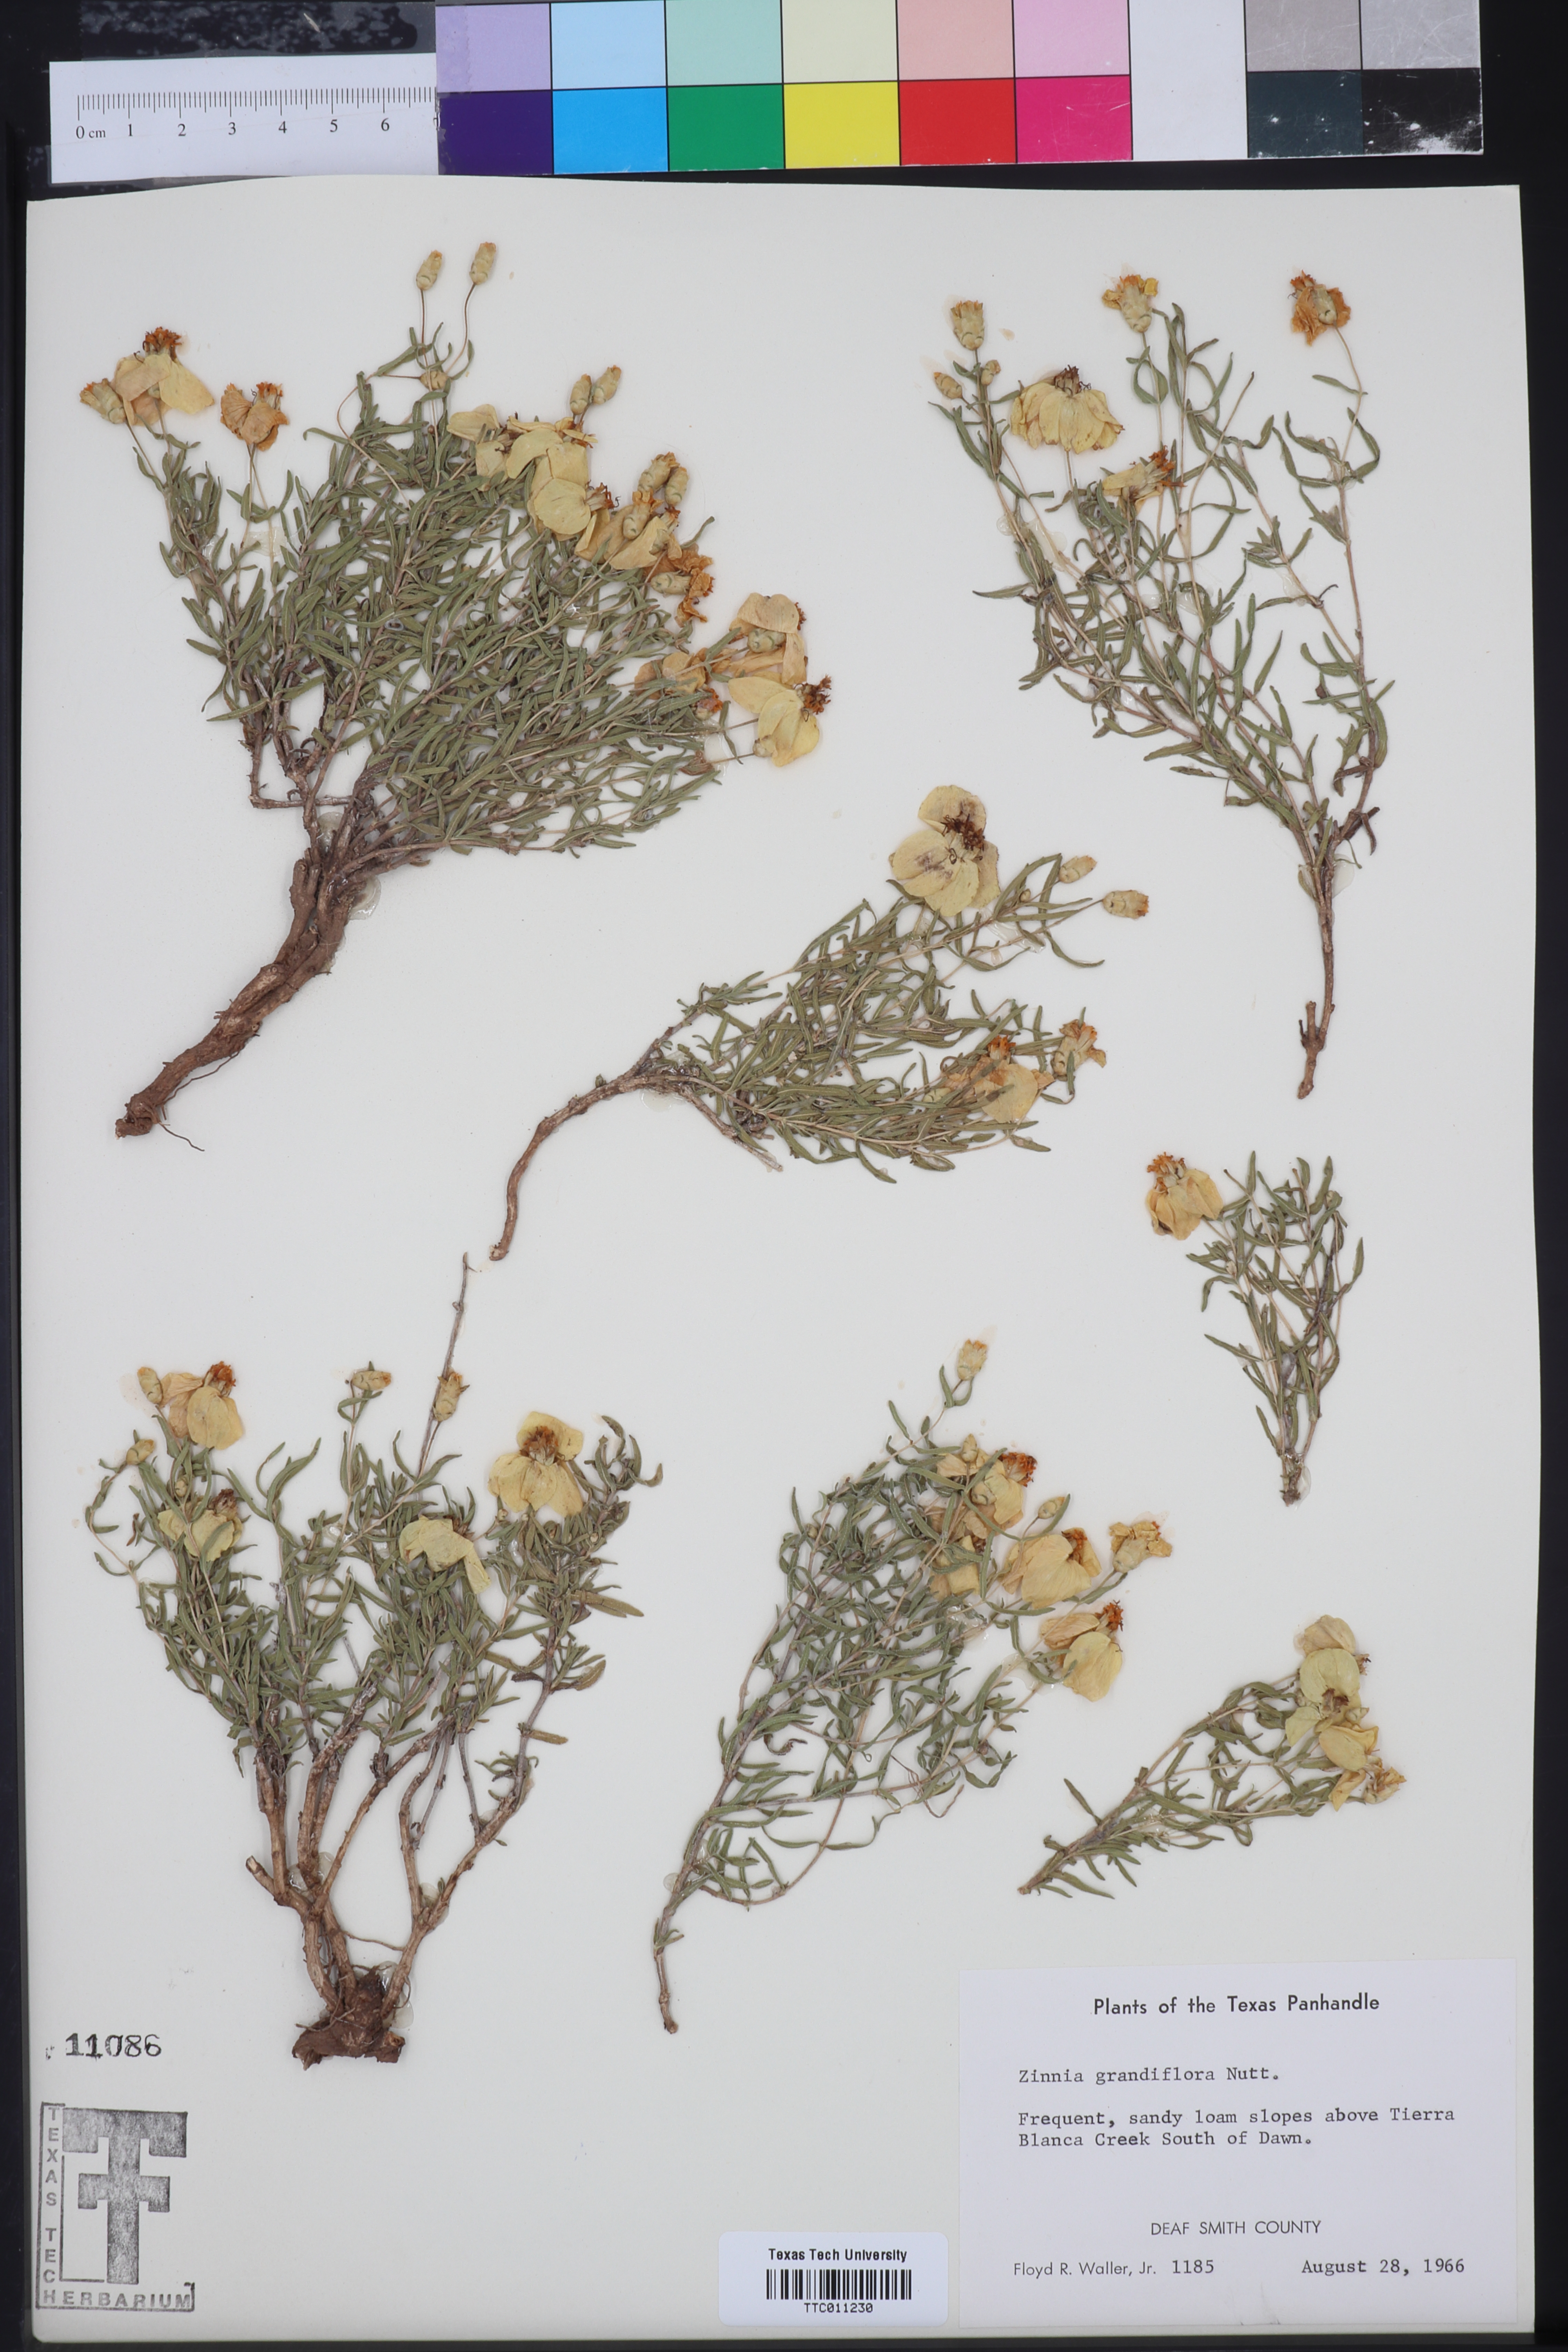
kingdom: Plantae
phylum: Tracheophyta
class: Magnoliopsida
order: Asterales
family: Asteraceae
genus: Zinnia
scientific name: Zinnia grandiflora
